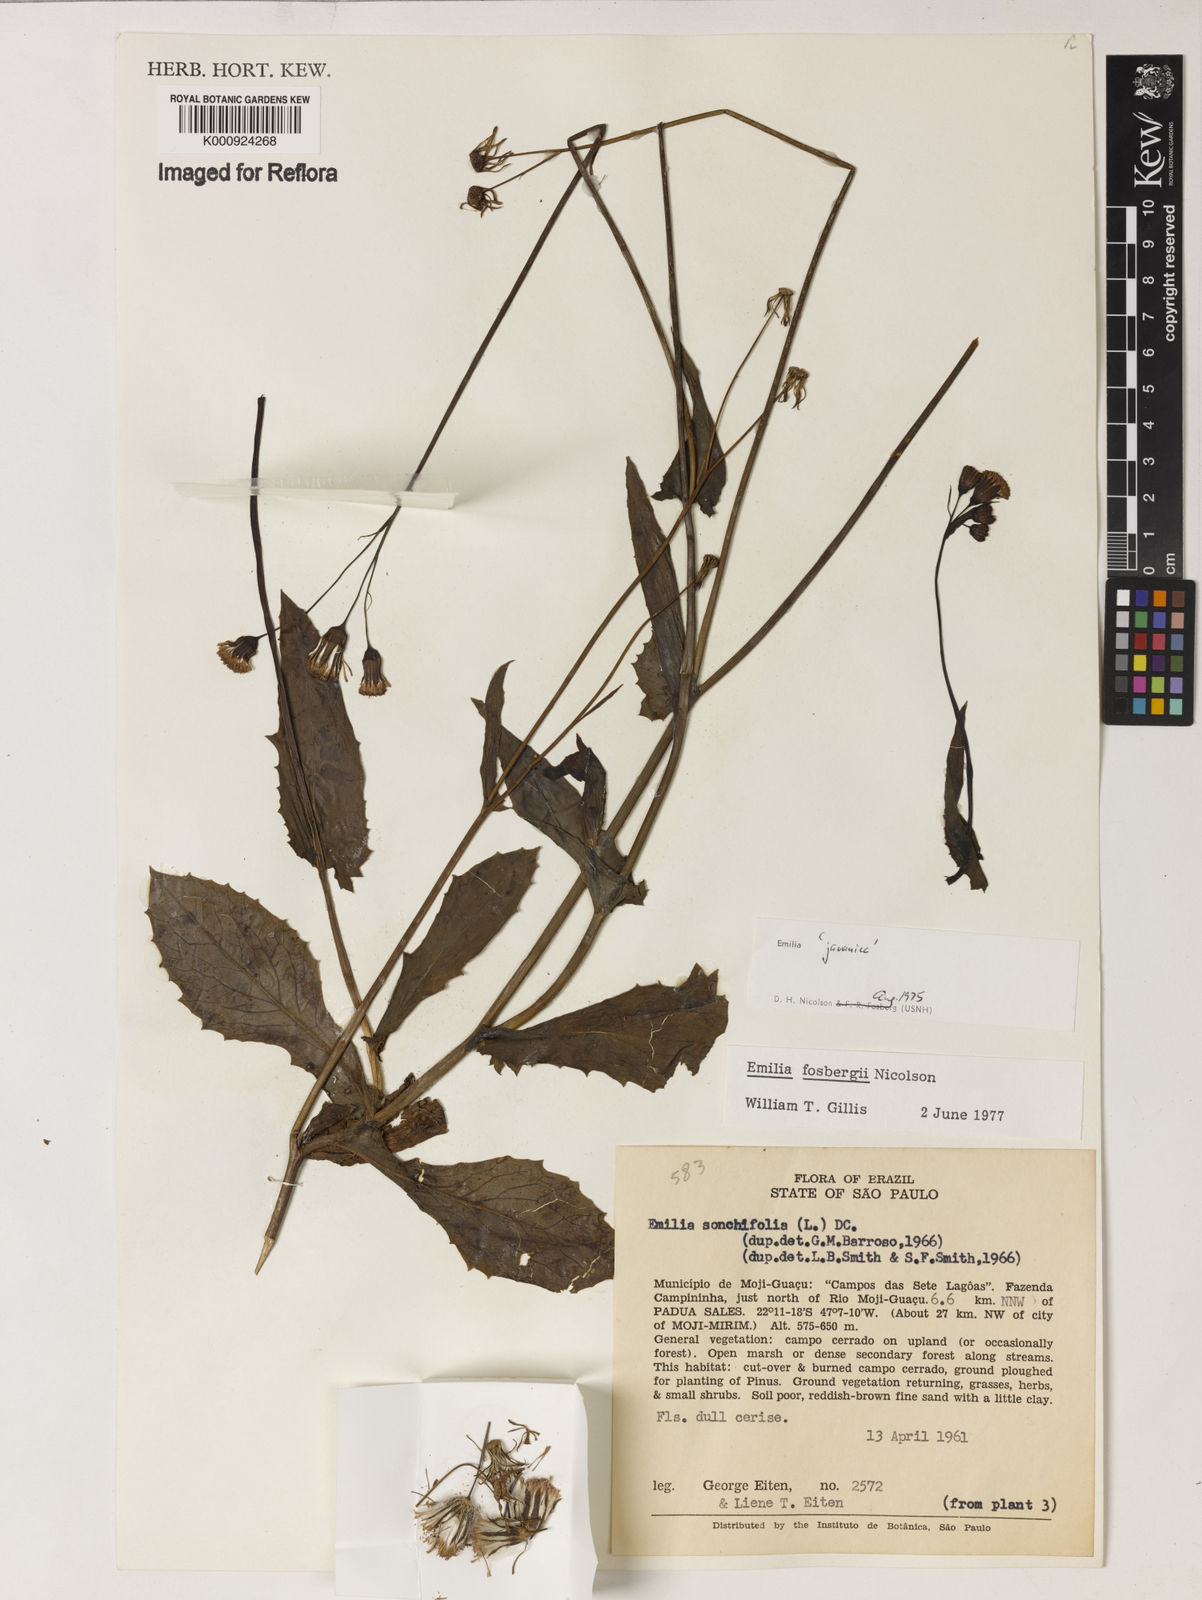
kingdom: Plantae
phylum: Tracheophyta
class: Magnoliopsida
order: Asterales
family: Asteraceae
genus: Emilia
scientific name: Emilia fosbergii
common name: Florida tasselflower
